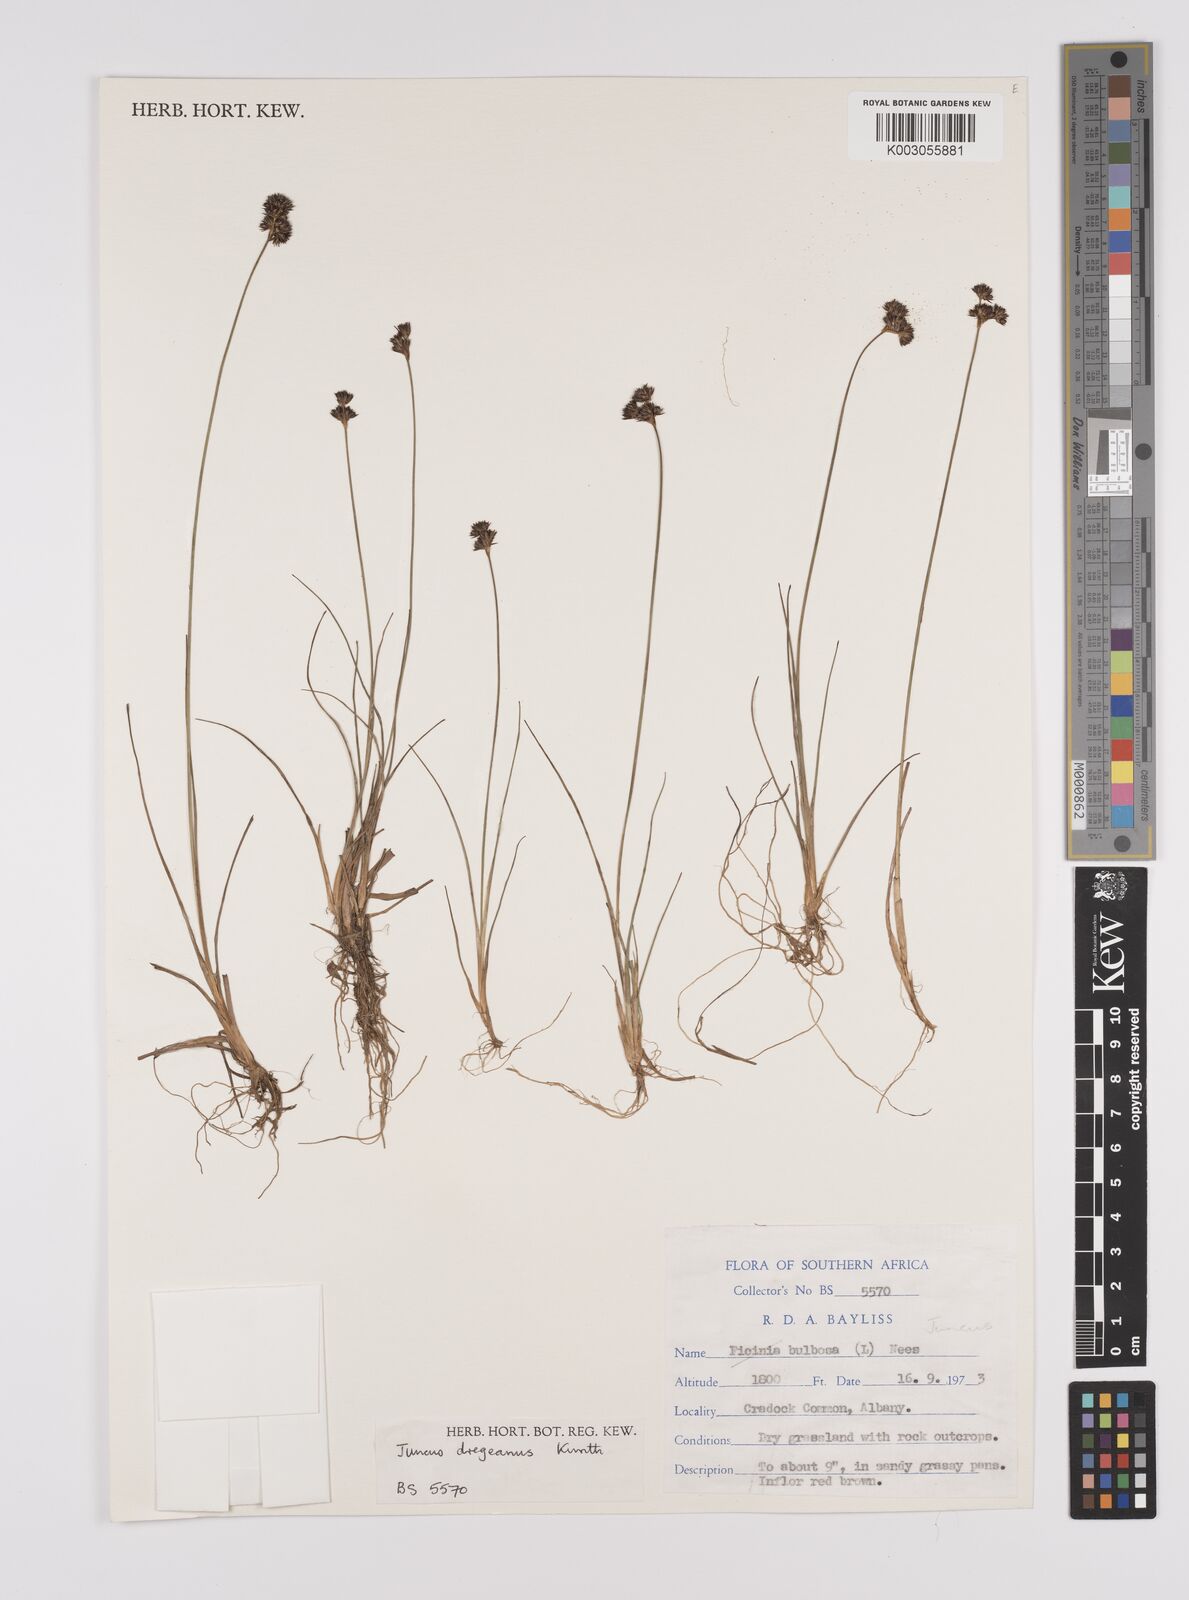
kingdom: Plantae
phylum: Tracheophyta
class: Liliopsida
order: Poales
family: Juncaceae
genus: Juncus
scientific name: Juncus dregeanus
